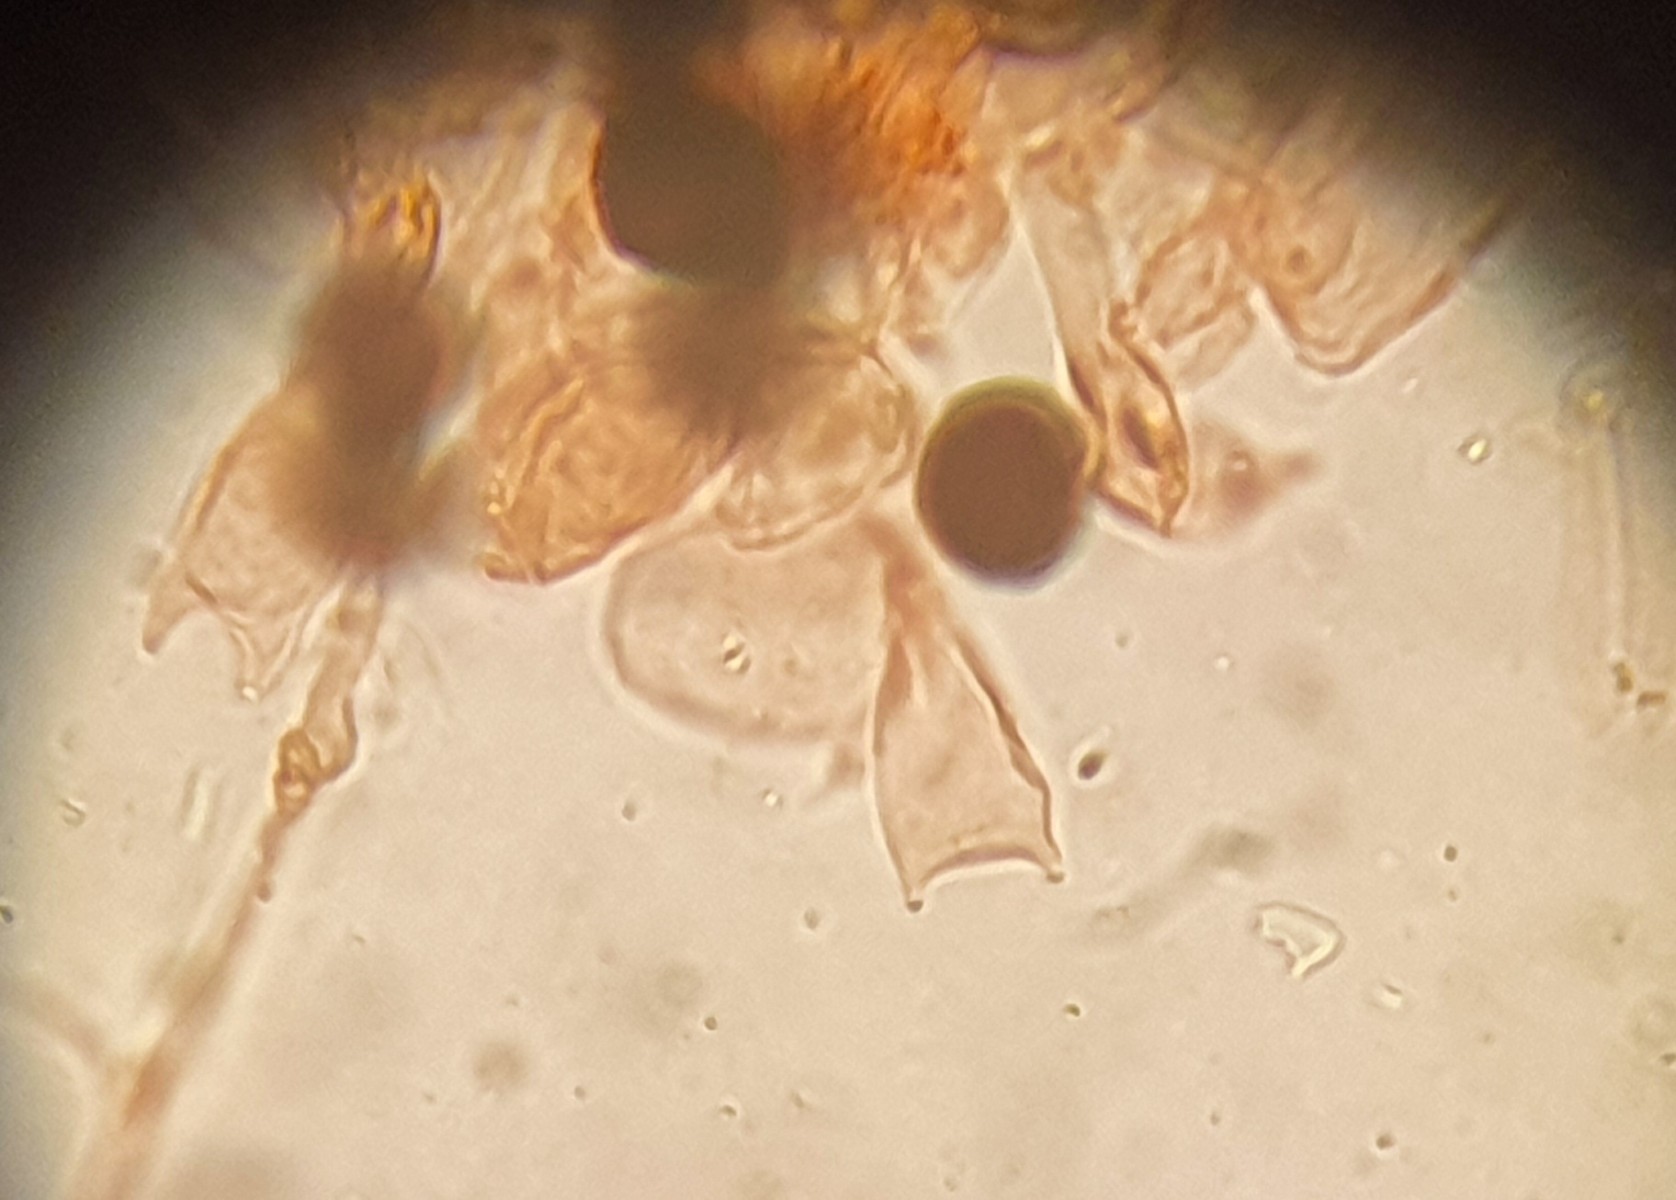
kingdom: Fungi
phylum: Basidiomycota
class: Agaricomycetes
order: Agaricales
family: Psathyrellaceae
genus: Parasola
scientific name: Parasola cuniculorum
